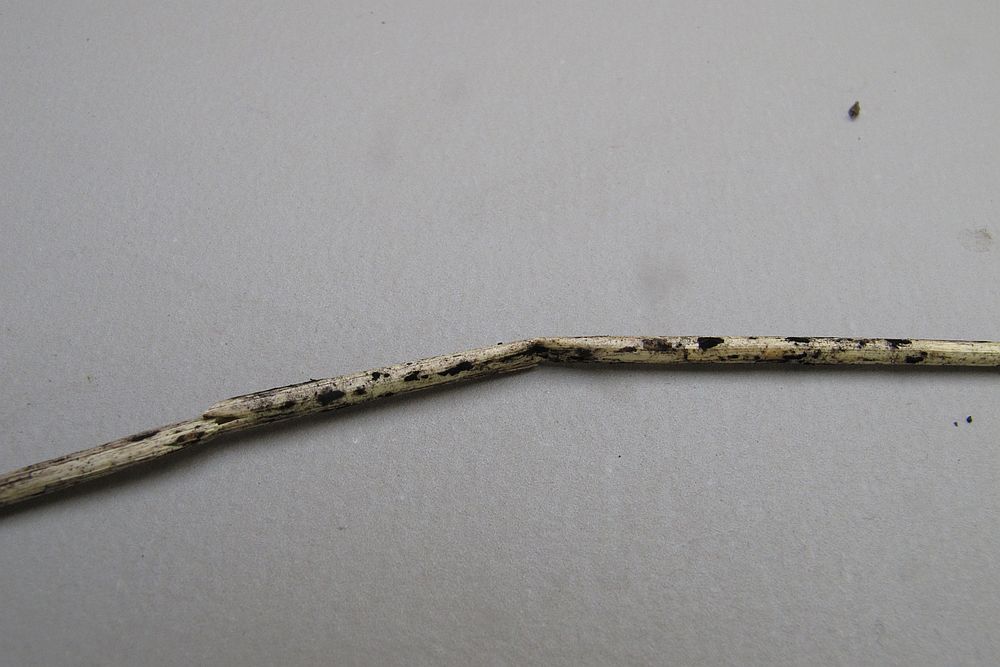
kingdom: Fungi
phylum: Ascomycota
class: Sordariomycetes
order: Xylariales
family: Apiosporaceae
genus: Apiospora
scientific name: Apiospora sphaerosperma
